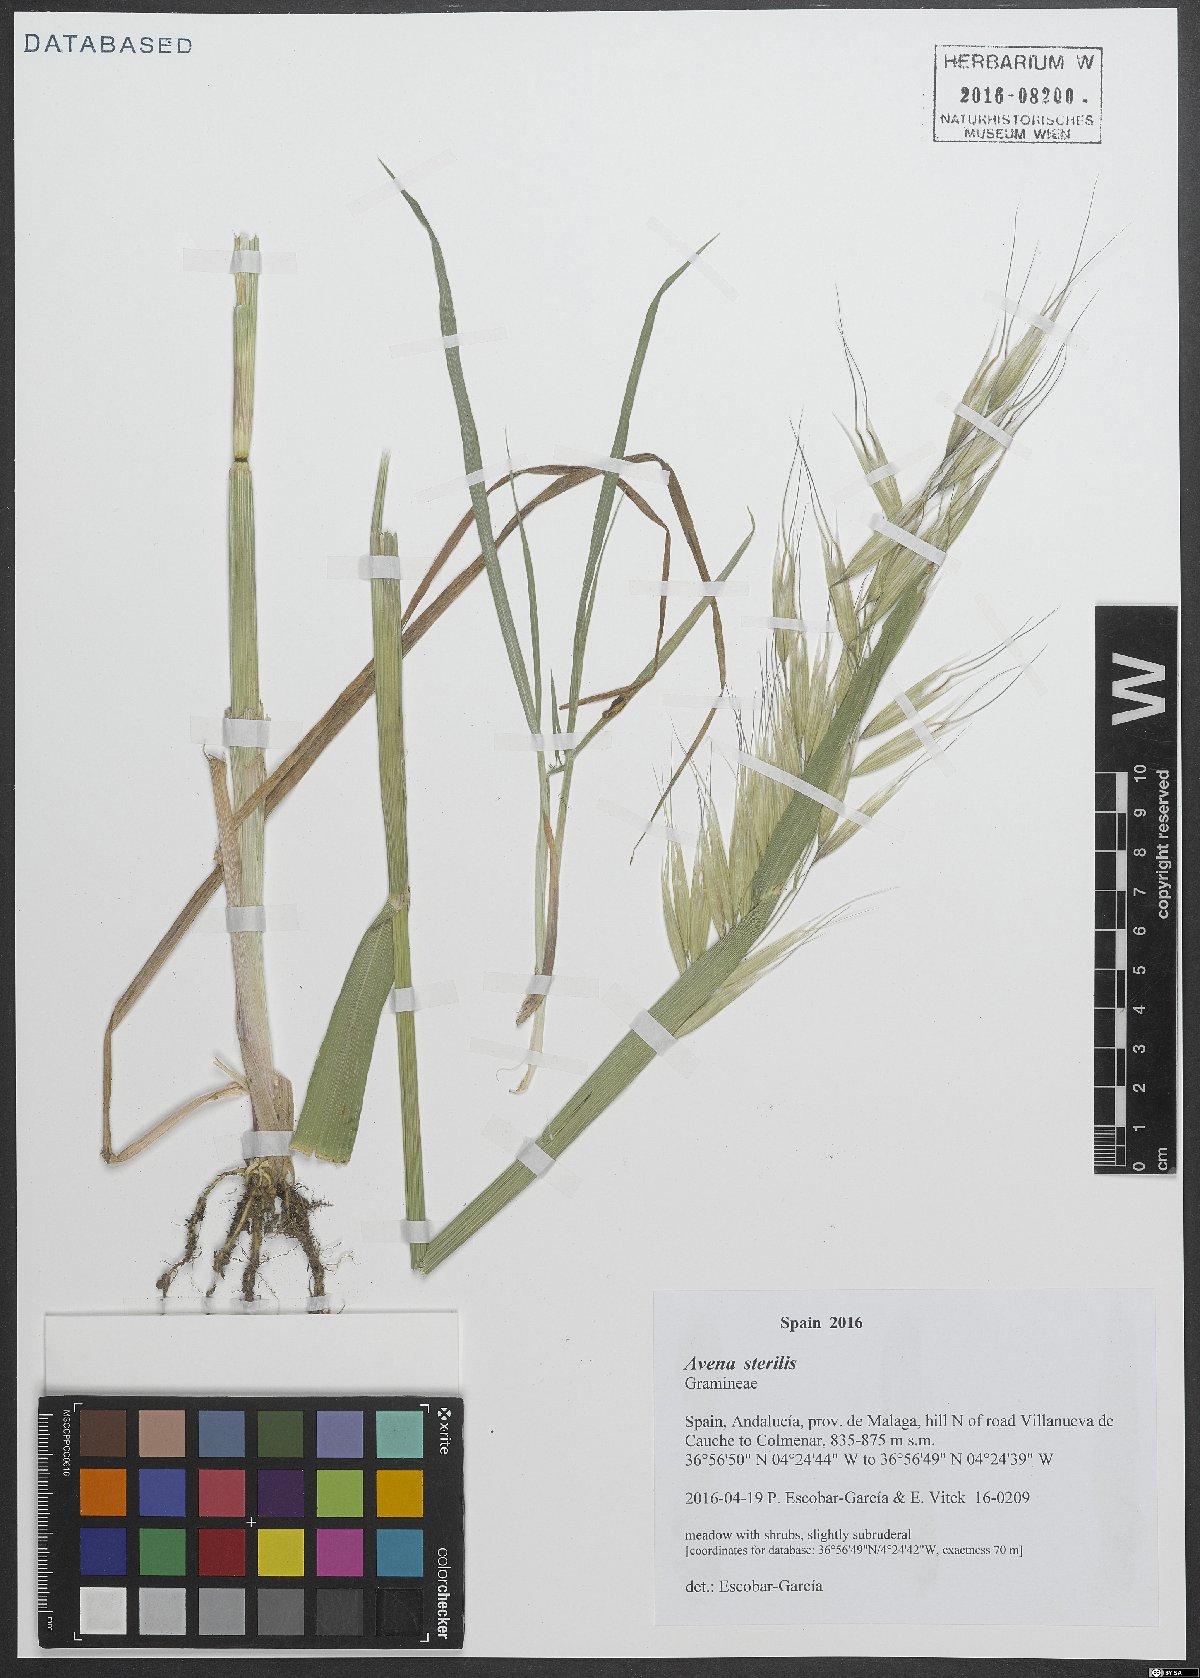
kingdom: Plantae
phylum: Tracheophyta
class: Liliopsida
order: Poales
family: Poaceae
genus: Avena
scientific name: Avena sterilis
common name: Animated oat
